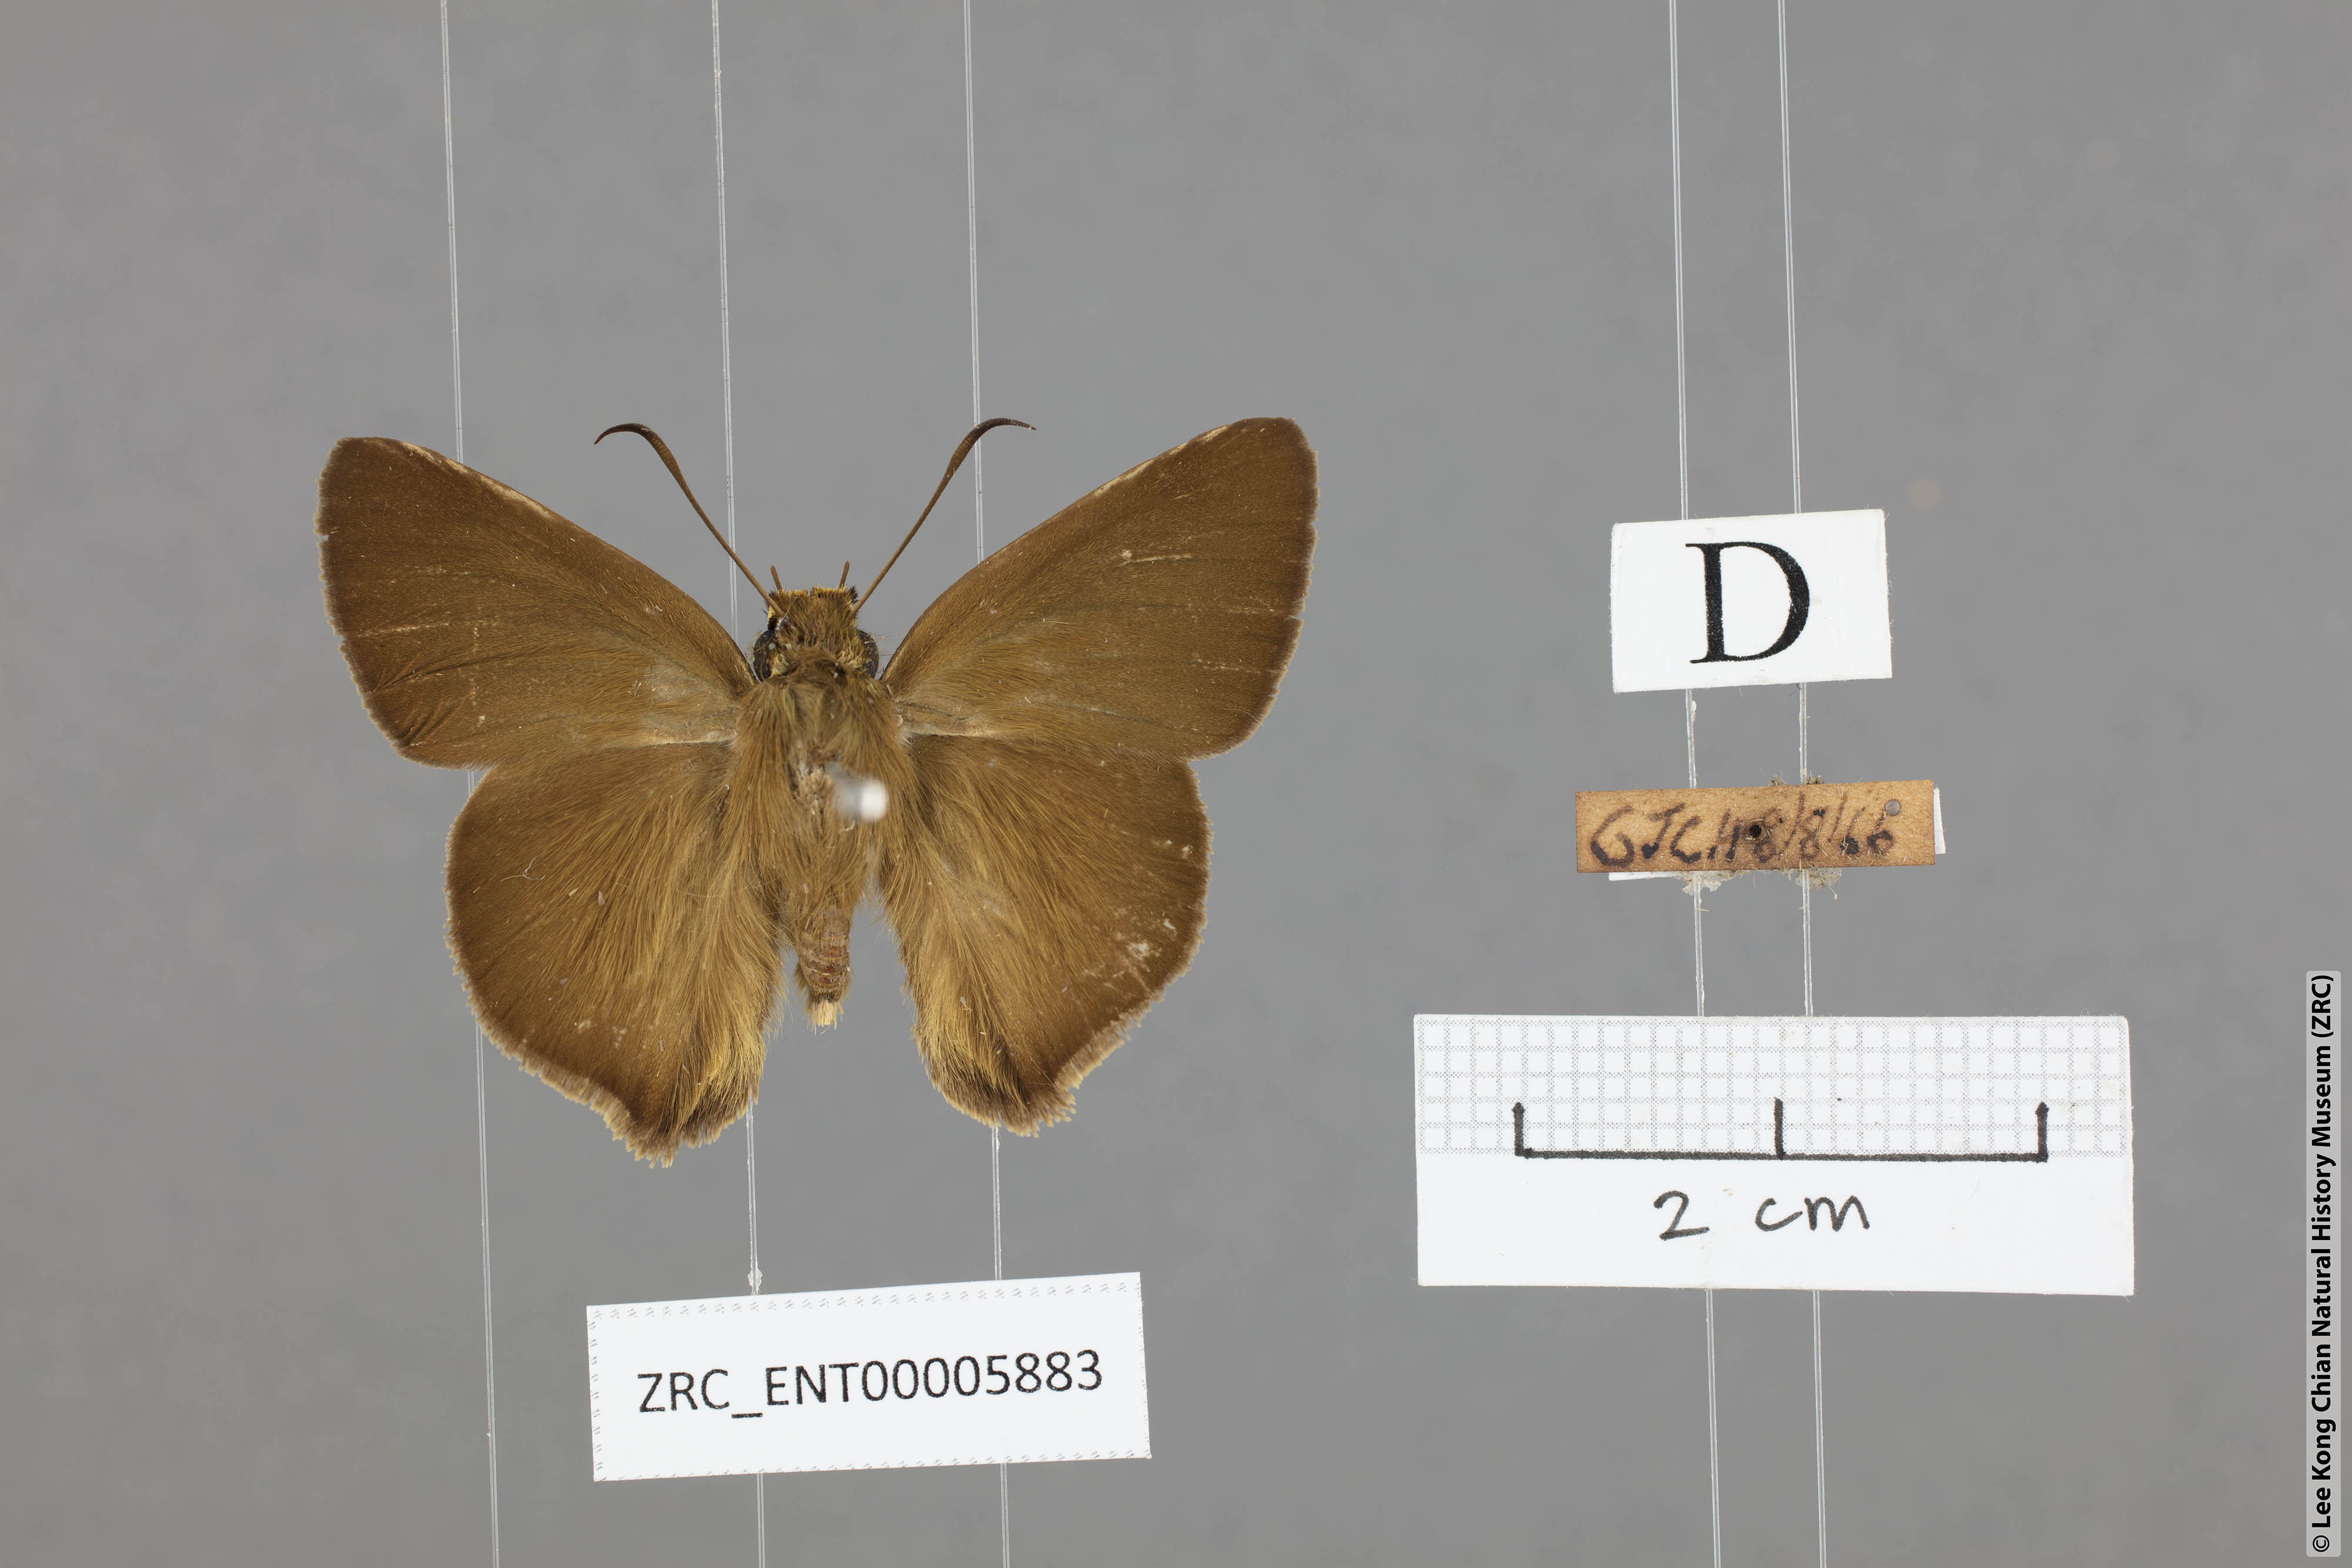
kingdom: Animalia
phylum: Arthropoda
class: Insecta
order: Lepidoptera
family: Hesperiidae
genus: Hasora
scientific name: Hasora mus
